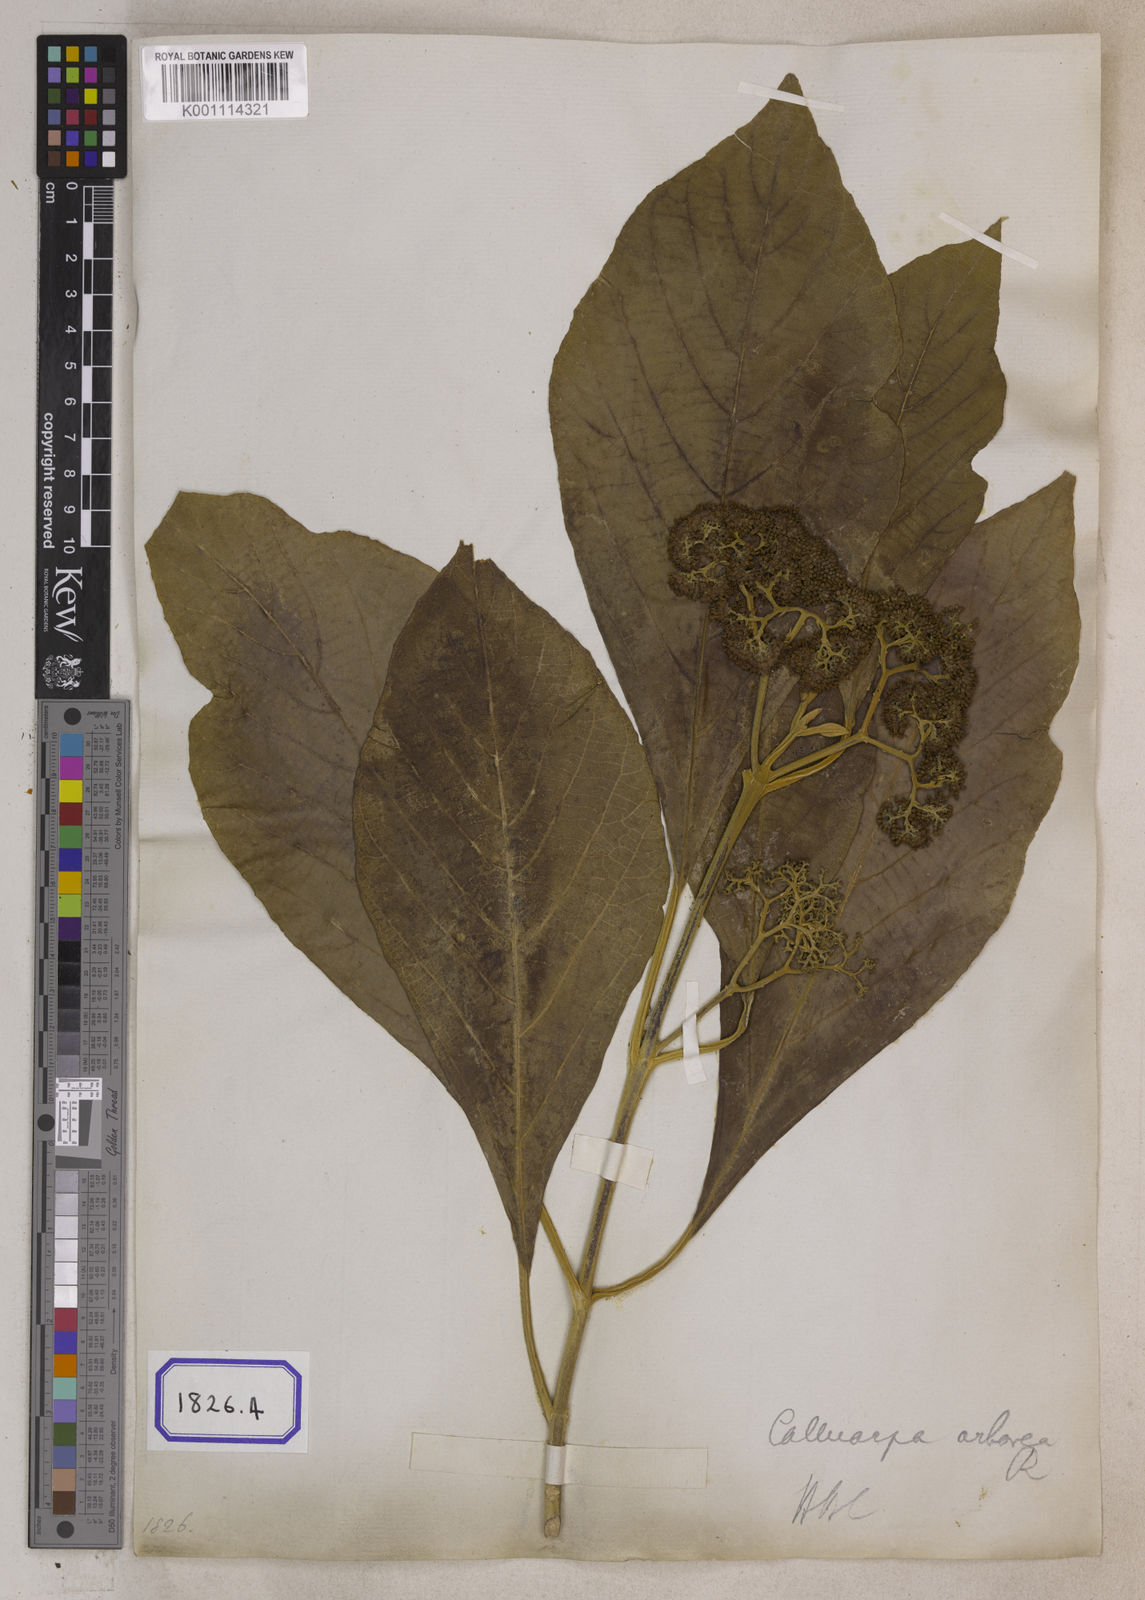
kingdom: Plantae
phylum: Tracheophyta
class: Magnoliopsida
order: Lamiales
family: Lamiaceae
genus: Callicarpa
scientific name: Callicarpa arborea
